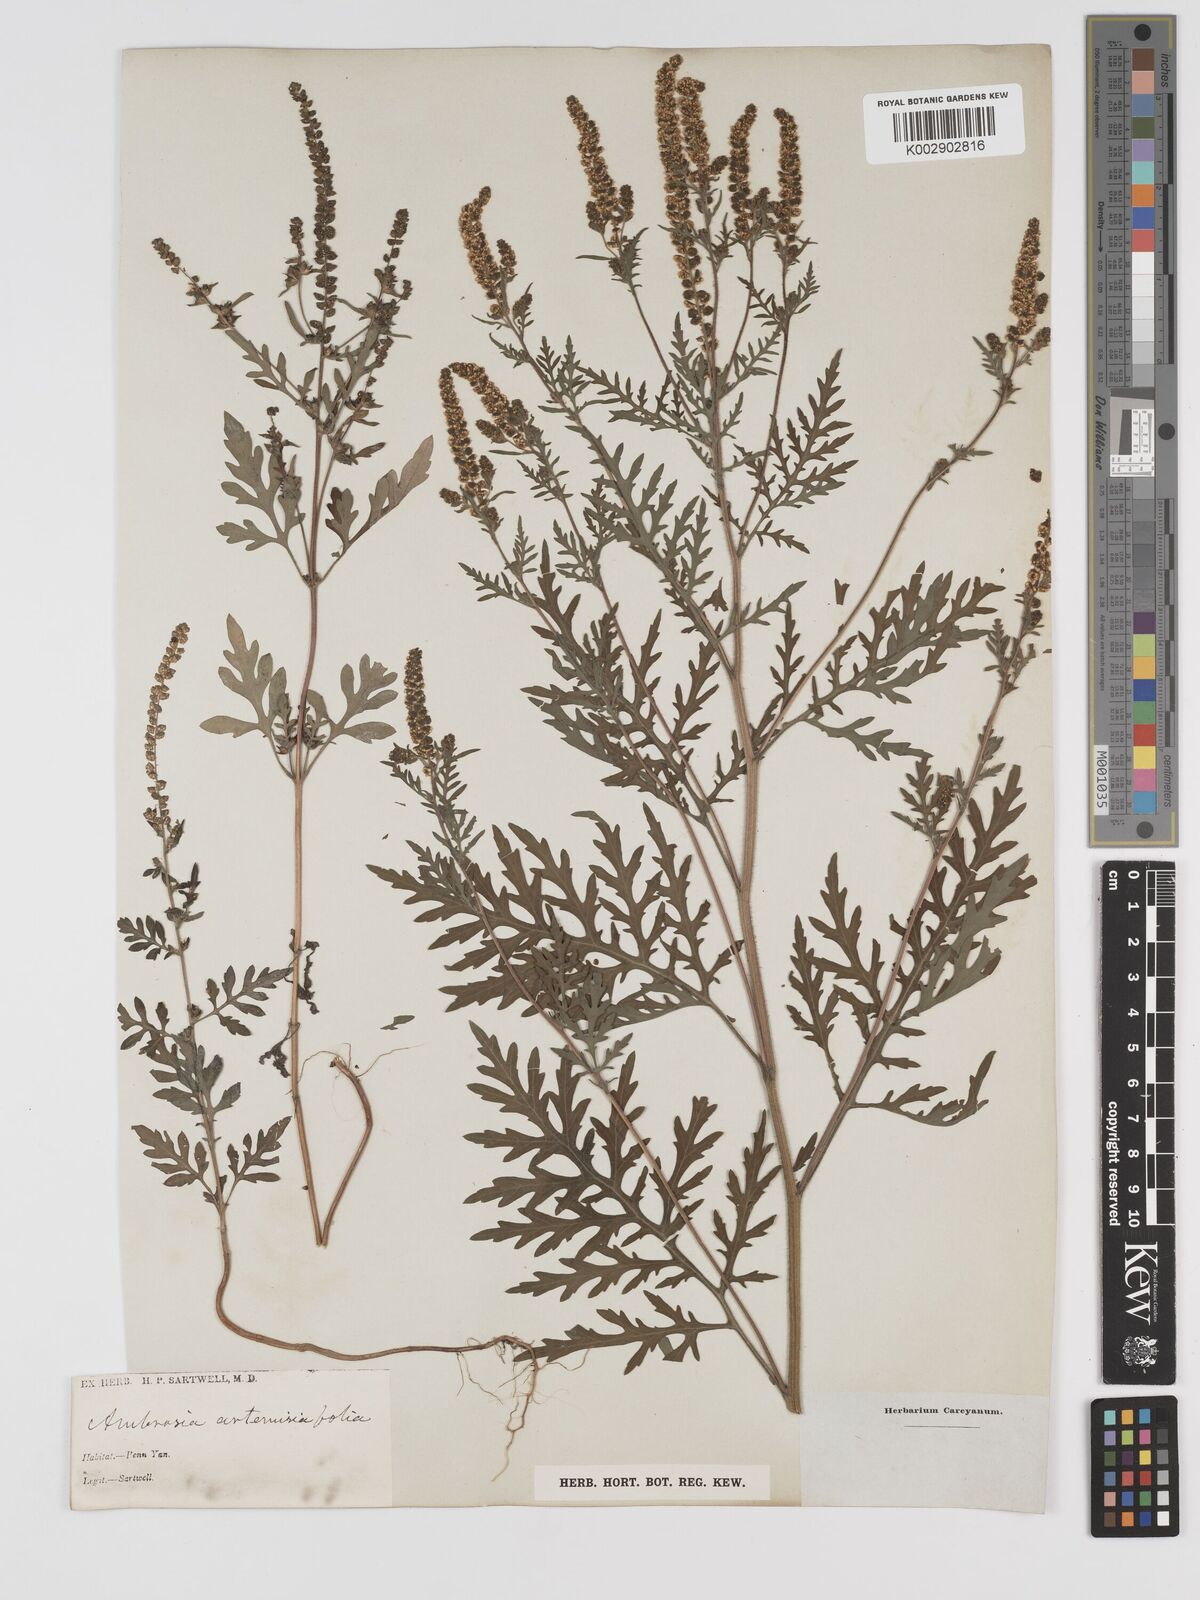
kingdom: Plantae
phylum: Tracheophyta
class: Magnoliopsida
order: Asterales
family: Asteraceae
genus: Ambrosia
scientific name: Ambrosia artemisiifolia
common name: Annual ragweed
